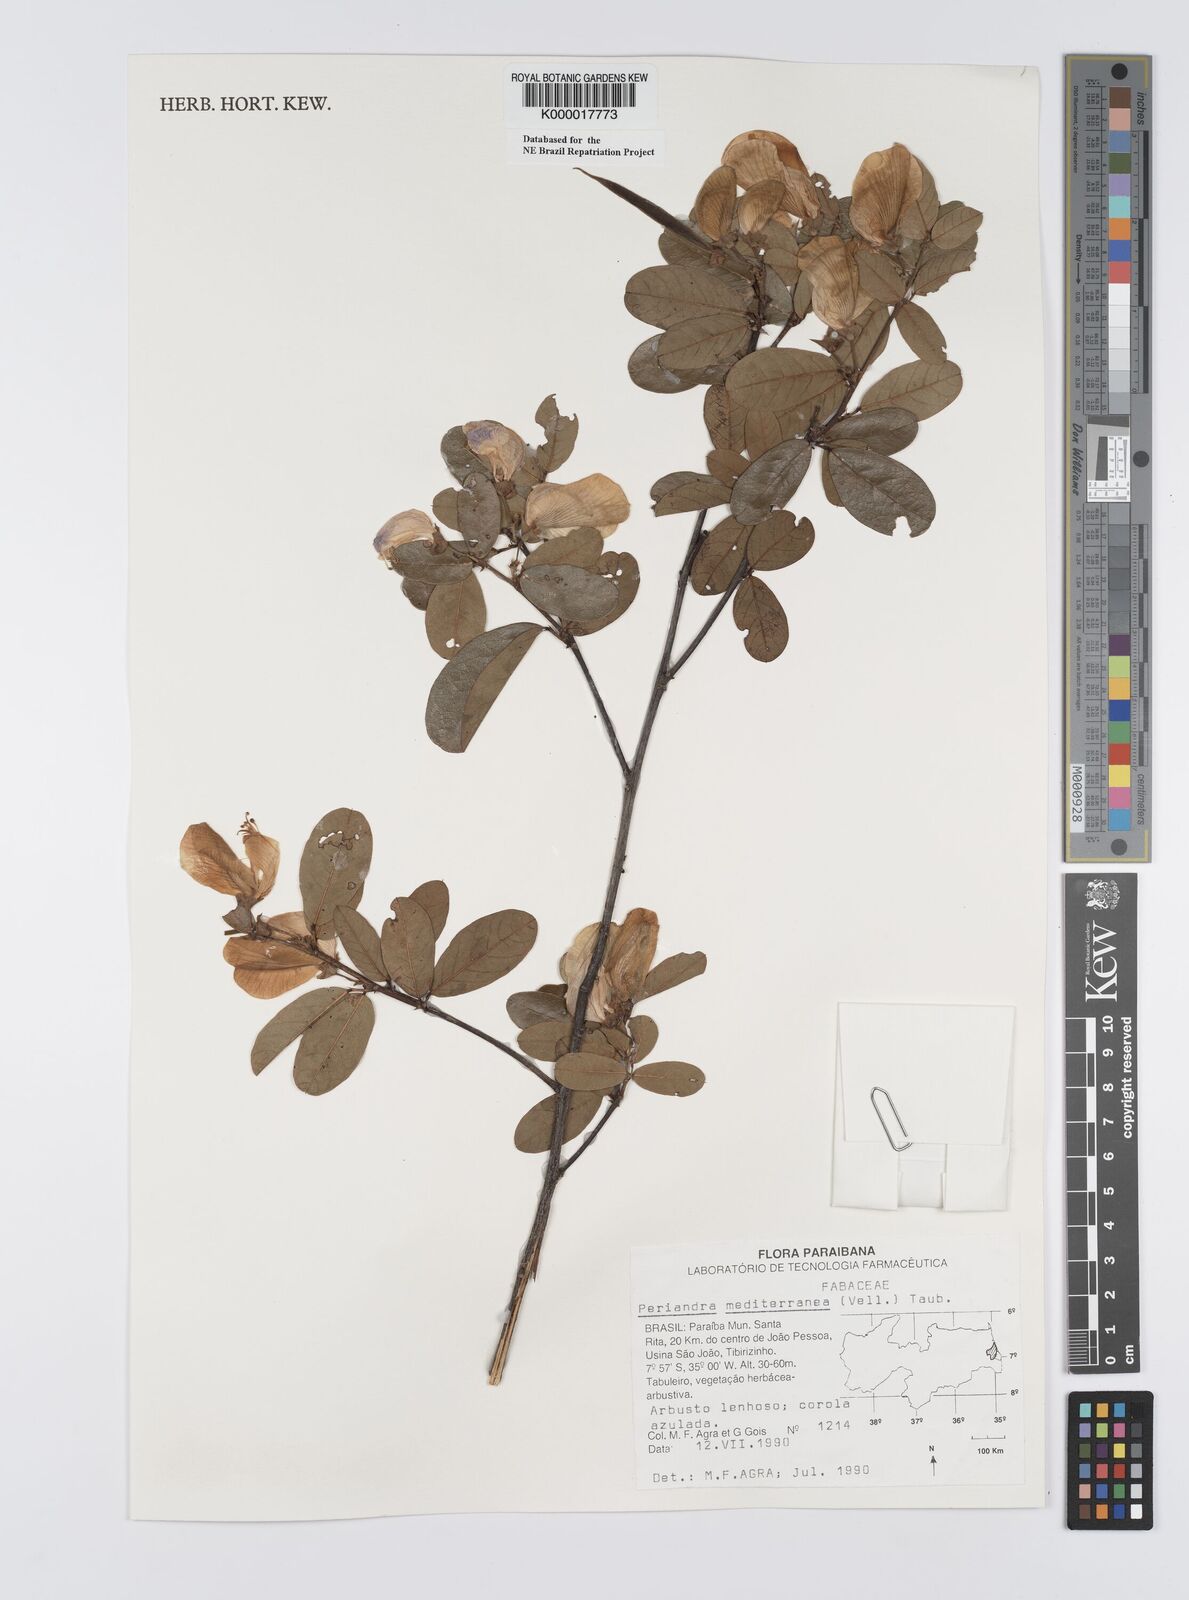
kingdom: Plantae
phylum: Tracheophyta
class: Magnoliopsida
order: Fabales
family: Fabaceae
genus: Periandra
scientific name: Periandra mediterranea
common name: Brazilian licorice
